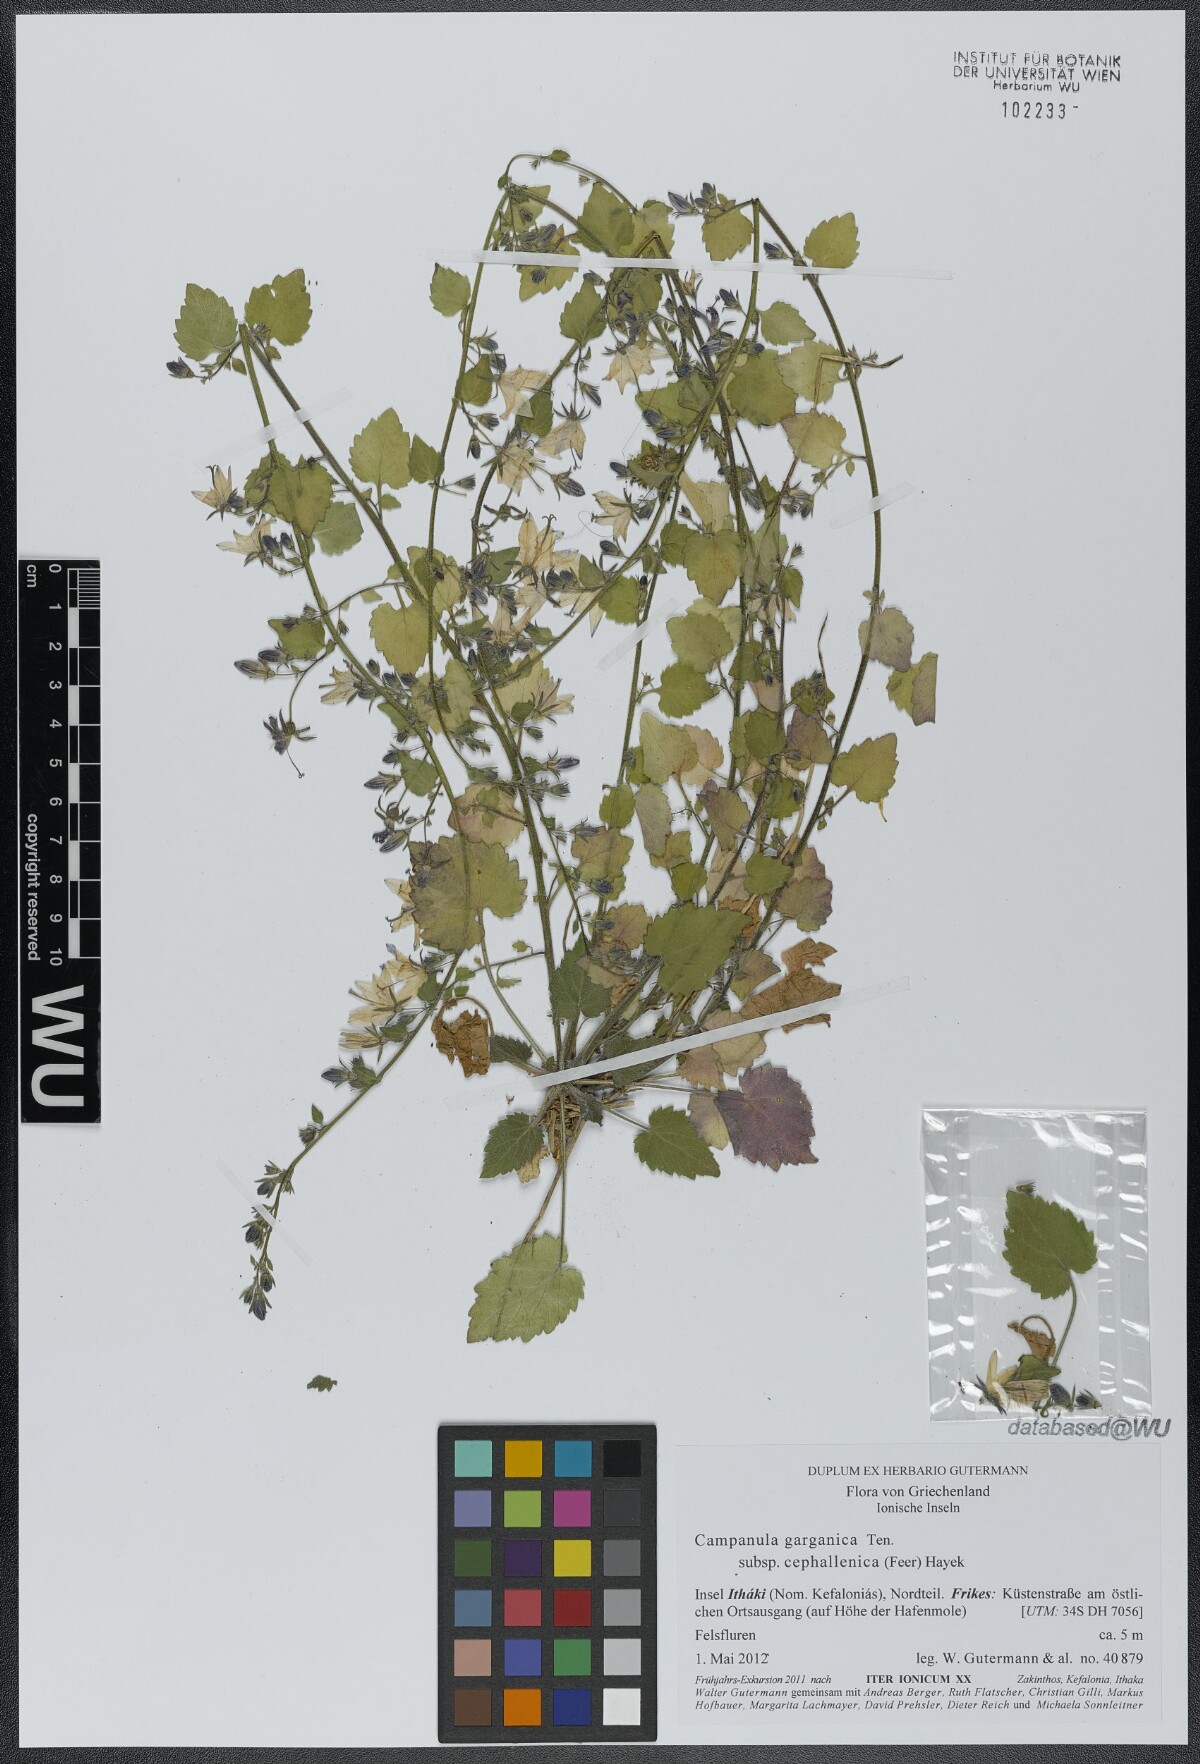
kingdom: Plantae
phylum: Tracheophyta
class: Magnoliopsida
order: Asterales
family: Campanulaceae
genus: Campanula
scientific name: Campanula garganica
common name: Adriatic bellflower
